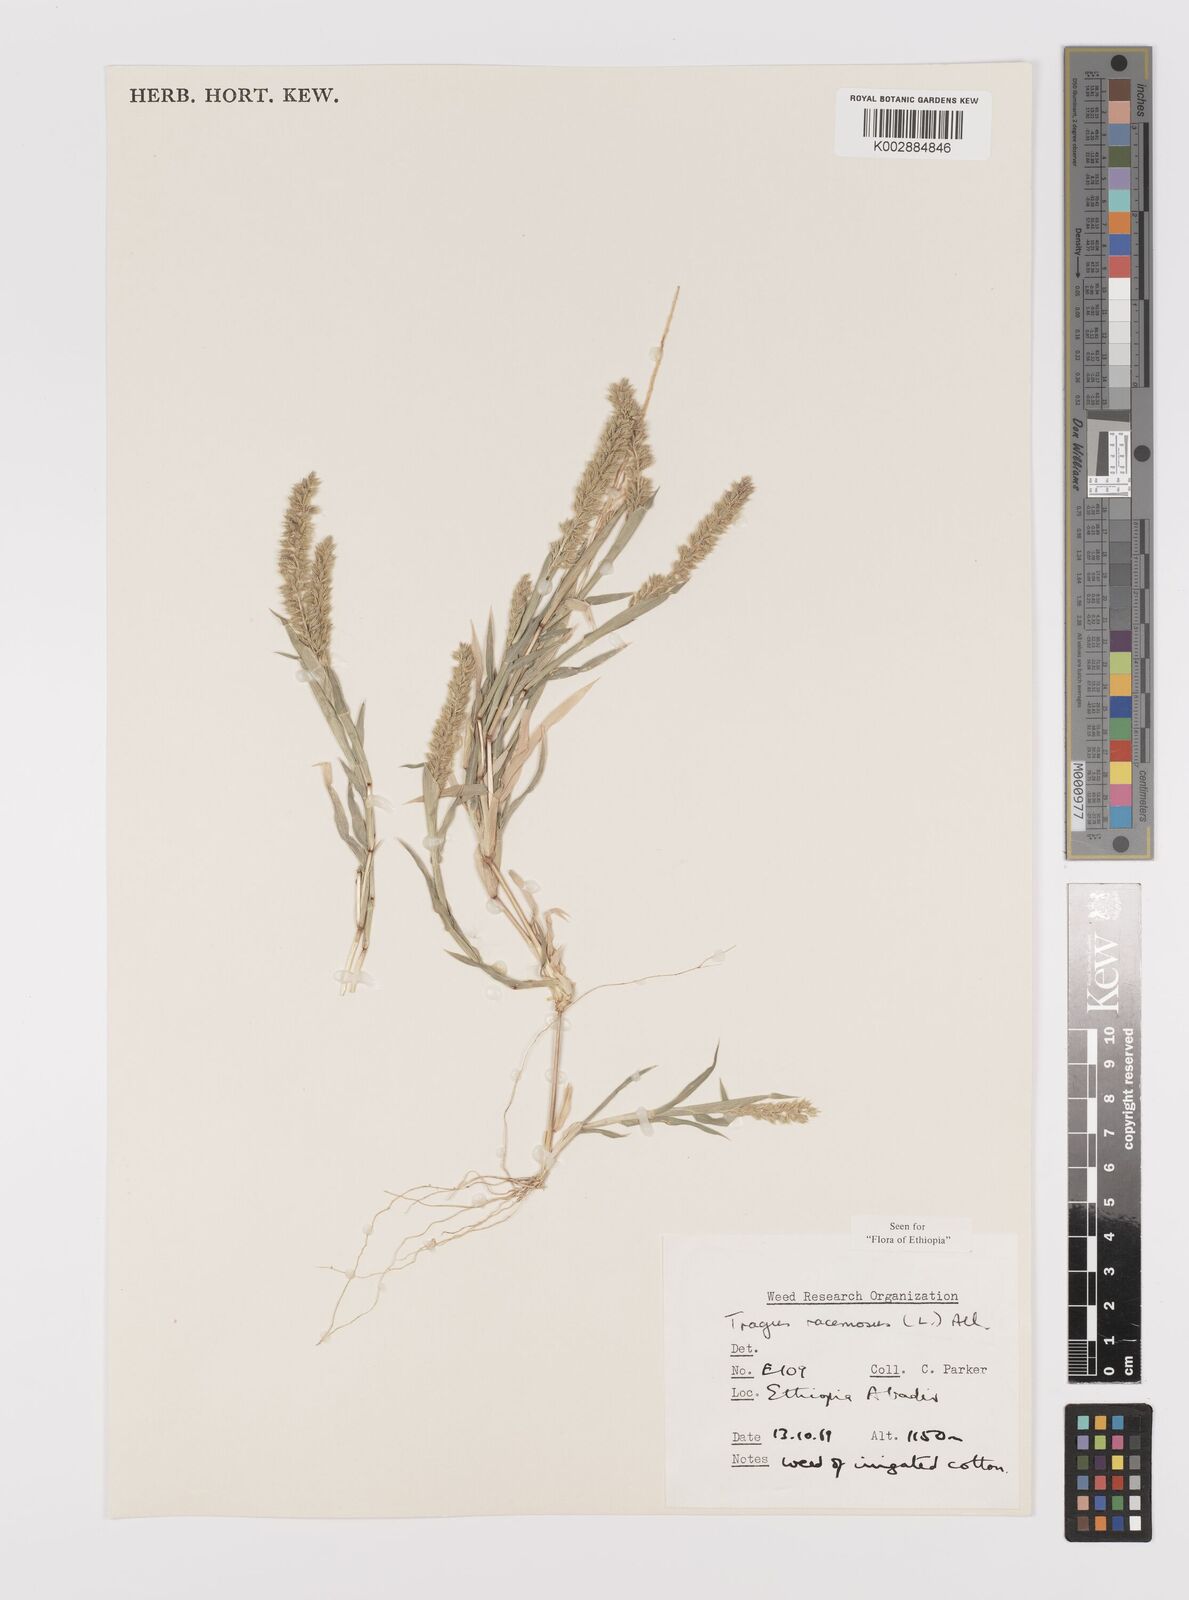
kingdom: Plantae
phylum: Tracheophyta
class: Liliopsida
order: Poales
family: Poaceae
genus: Tragus
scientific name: Tragus racemosus
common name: European bur-grass
